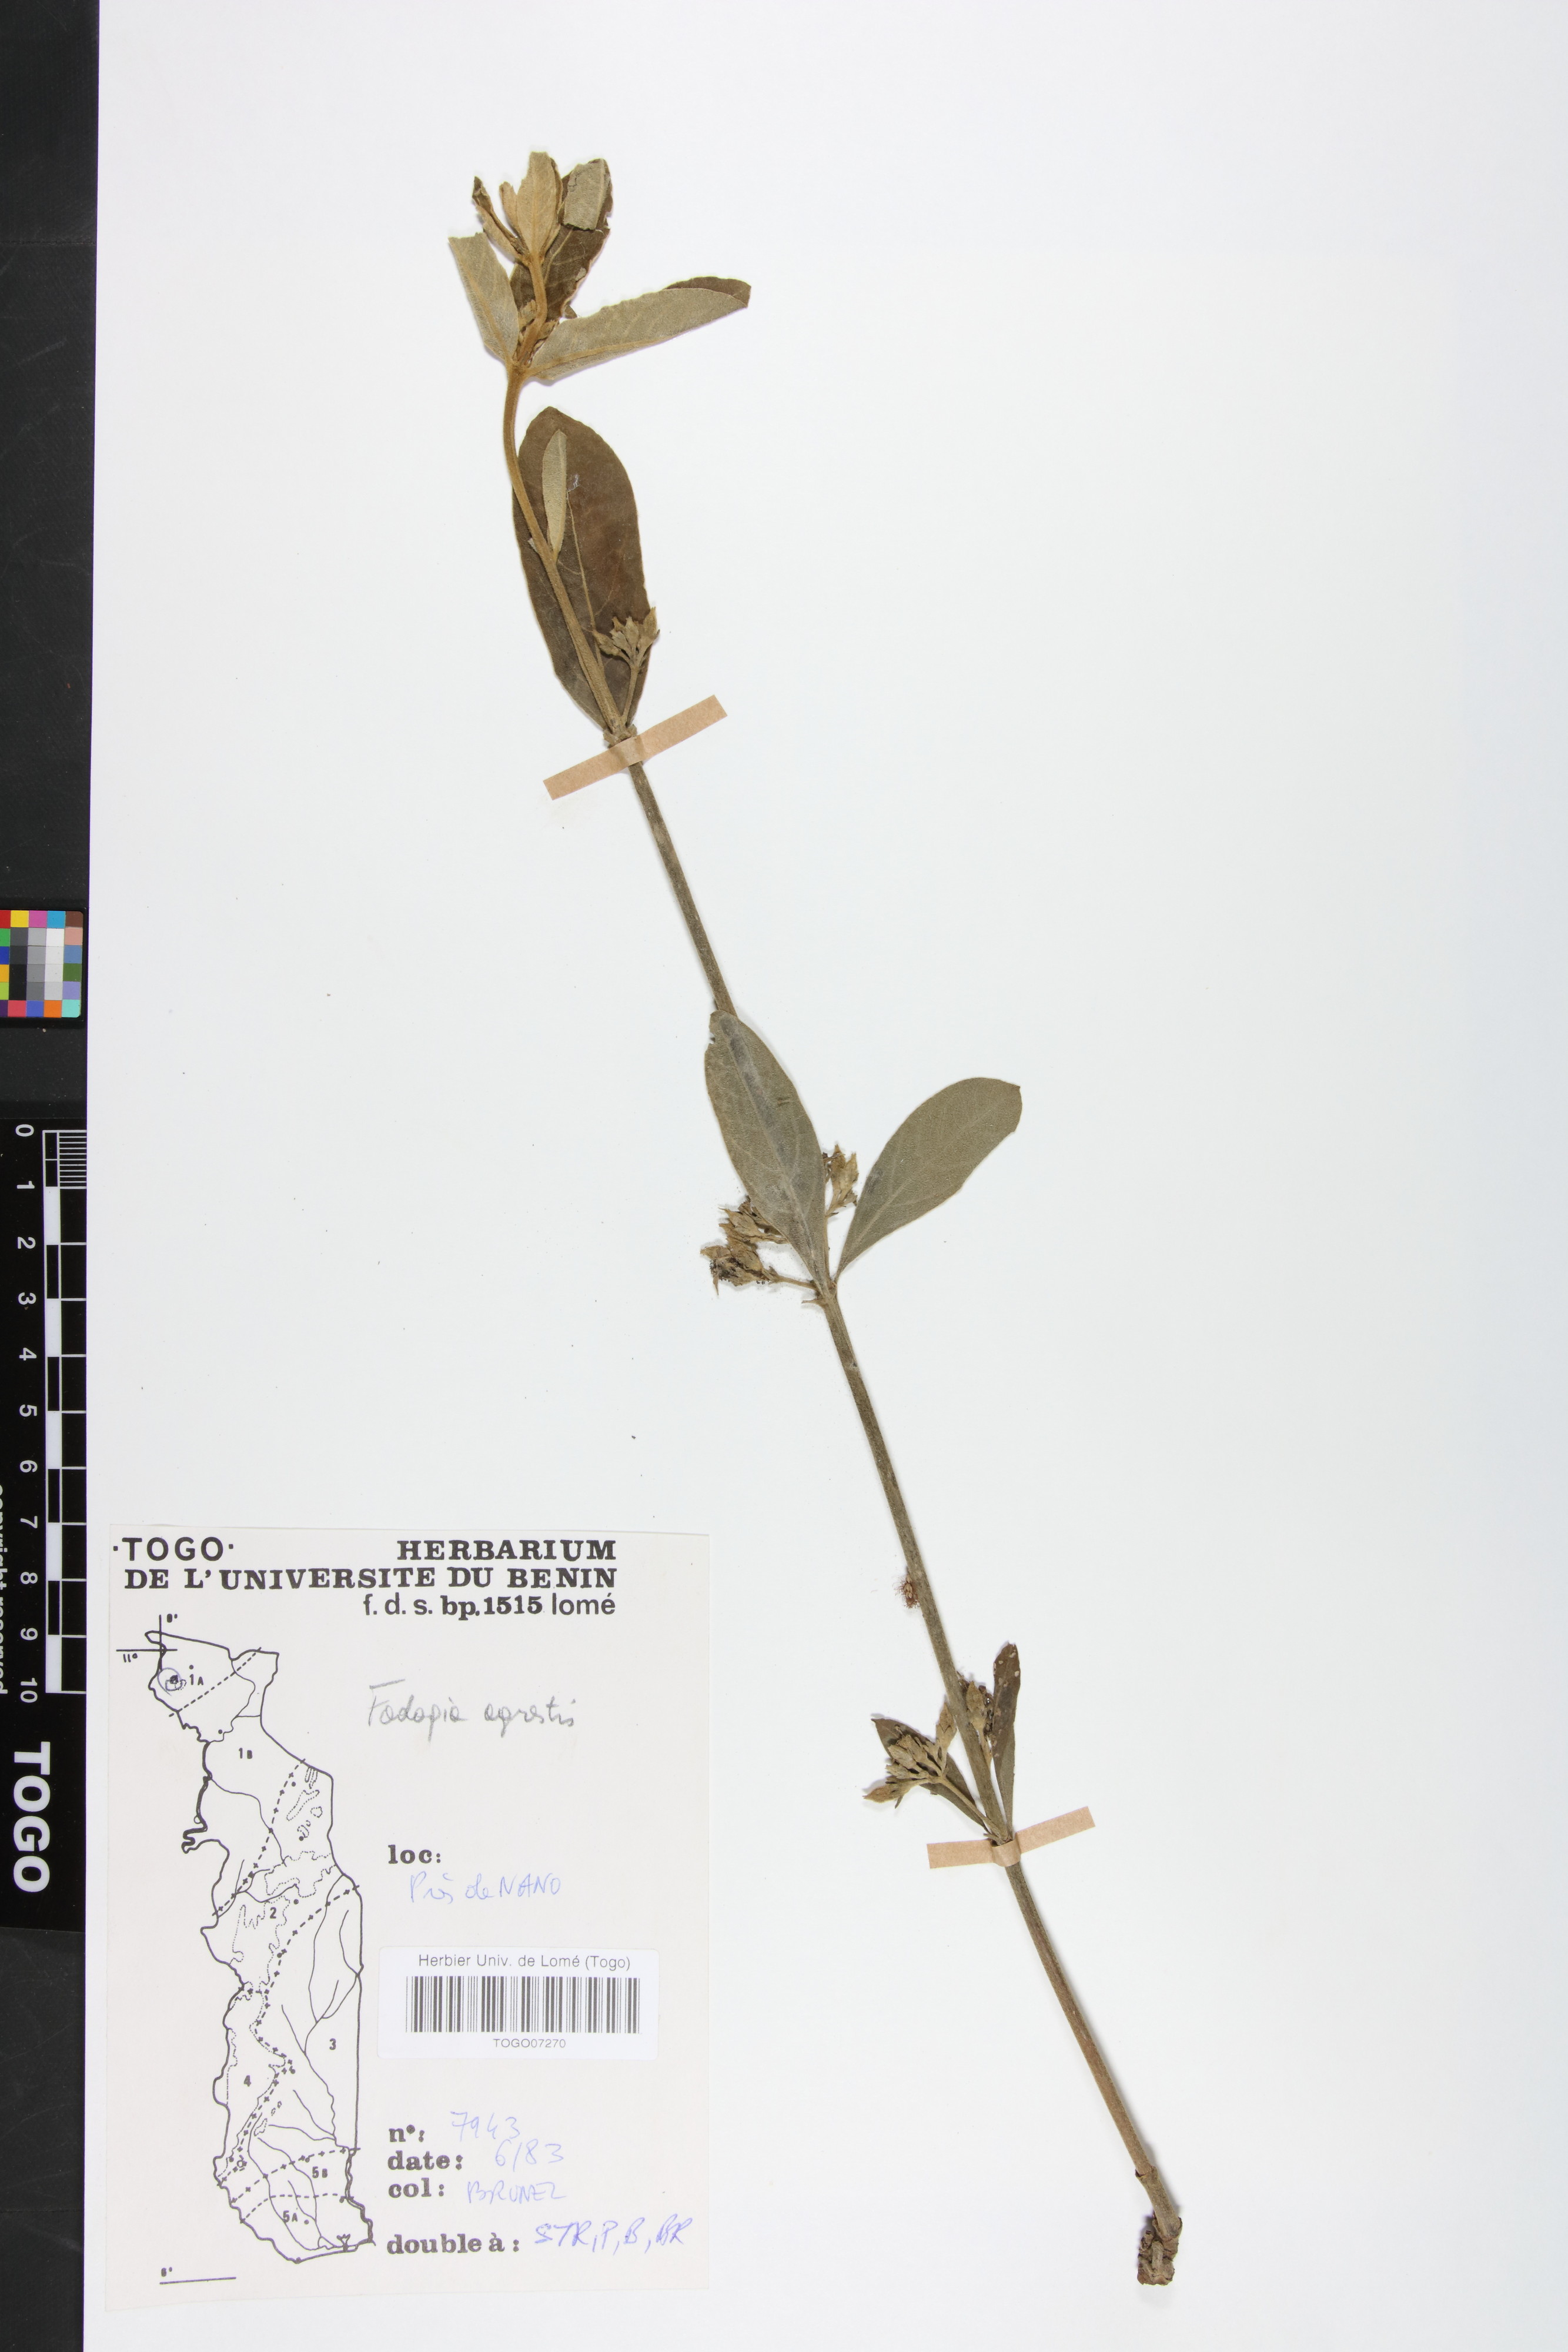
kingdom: Plantae
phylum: Tracheophyta
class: Magnoliopsida
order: Gentianales
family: Rubiaceae
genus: Vangueria
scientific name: Vangueria agrestis
